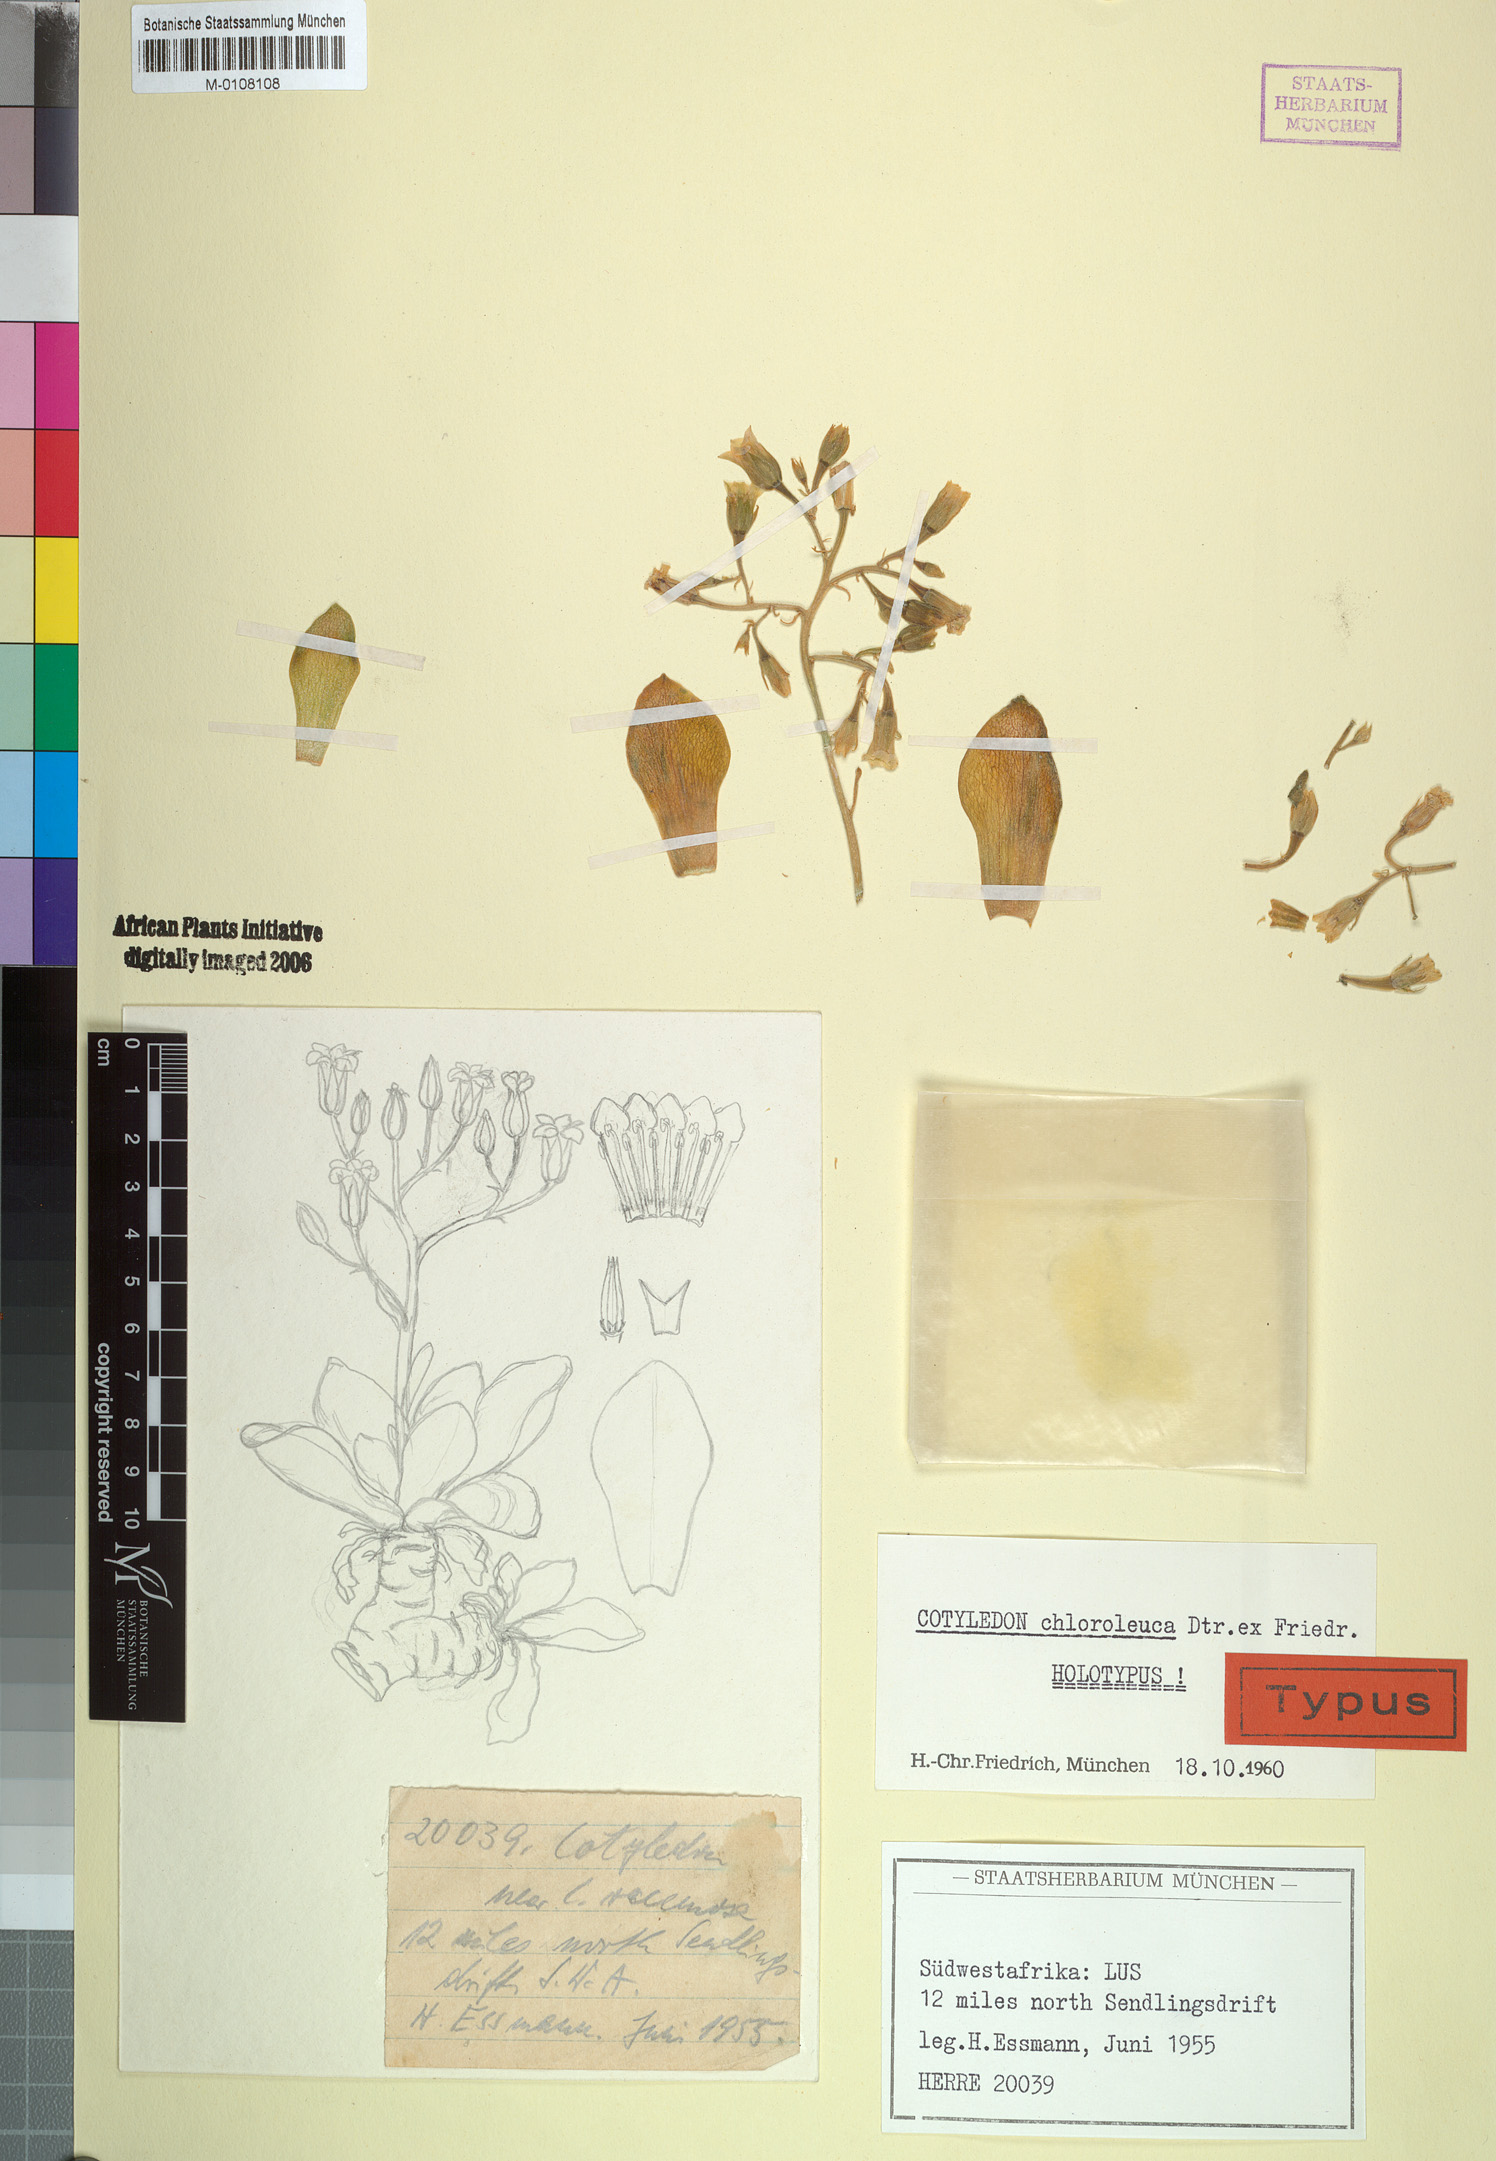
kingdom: Plantae
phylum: Tracheophyta
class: Magnoliopsida
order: Saxifragales
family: Crassulaceae
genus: Tylecodon
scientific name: Tylecodon racemosus
